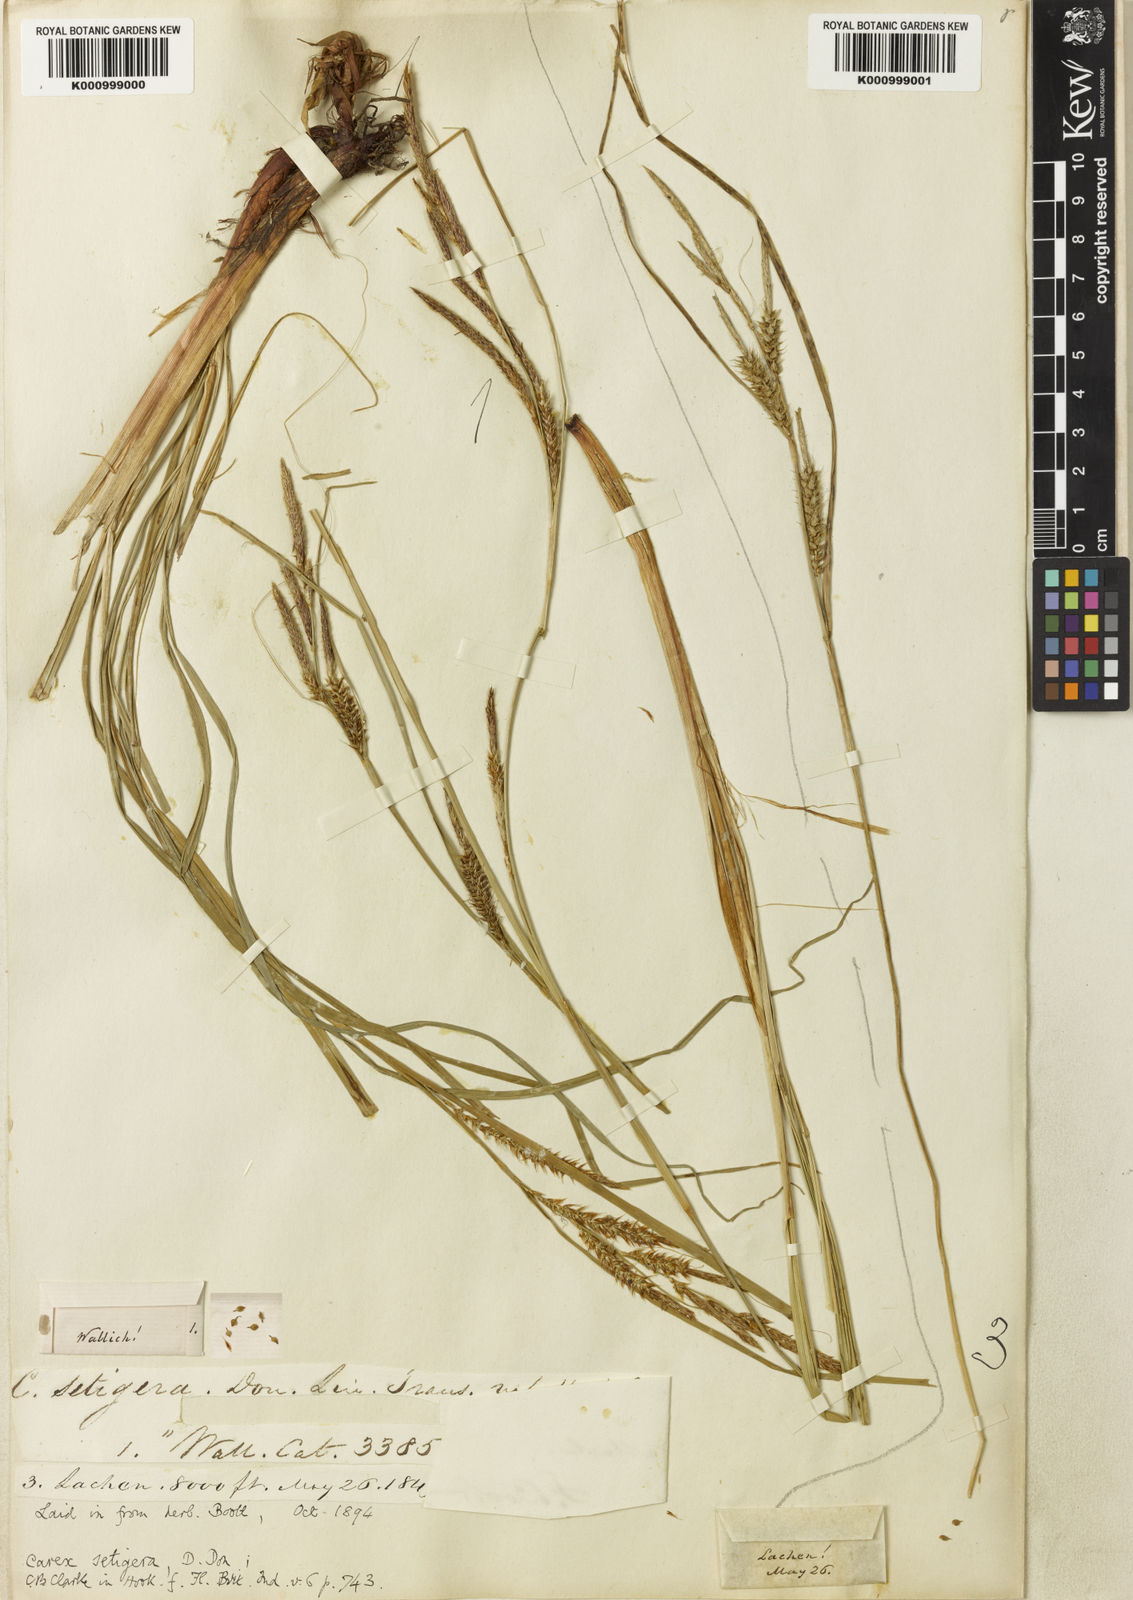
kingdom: Plantae
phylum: Tracheophyta
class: Liliopsida
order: Poales
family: Cyperaceae
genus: Carex
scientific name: Carex setigera
